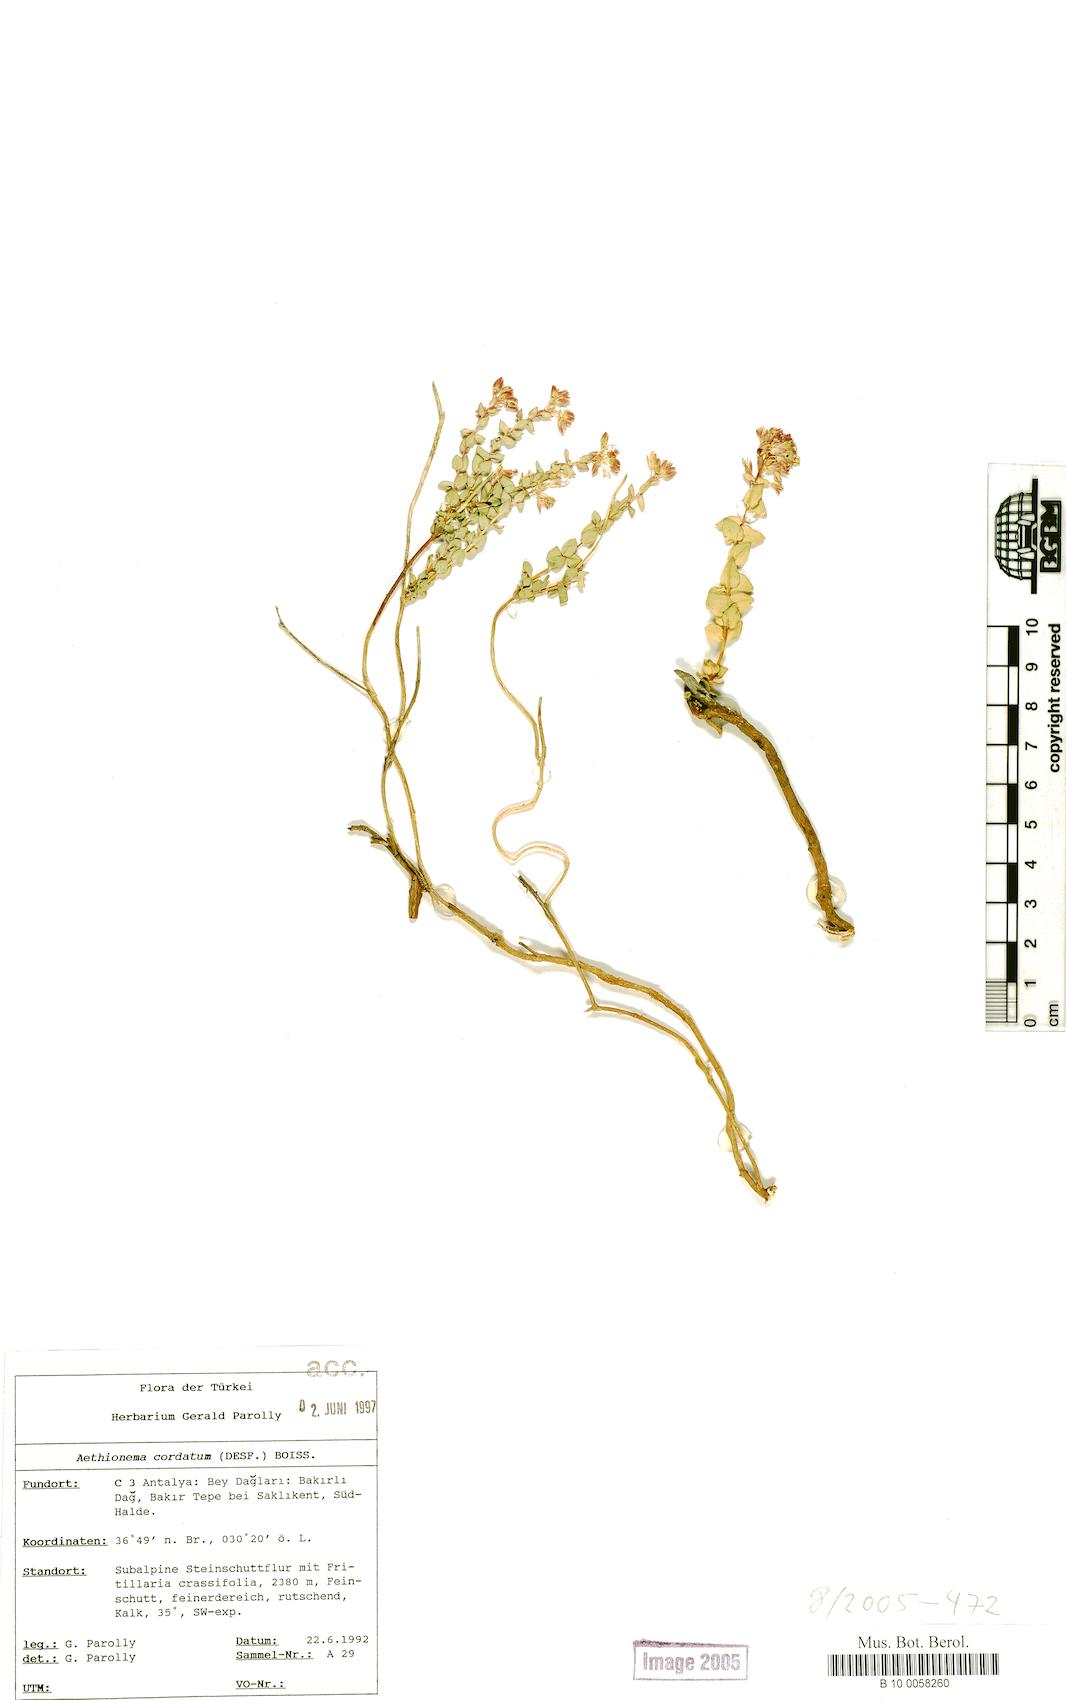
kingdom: Plantae
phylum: Tracheophyta
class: Magnoliopsida
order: Brassicales
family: Brassicaceae
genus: Aethionema
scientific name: Aethionema cordatum
